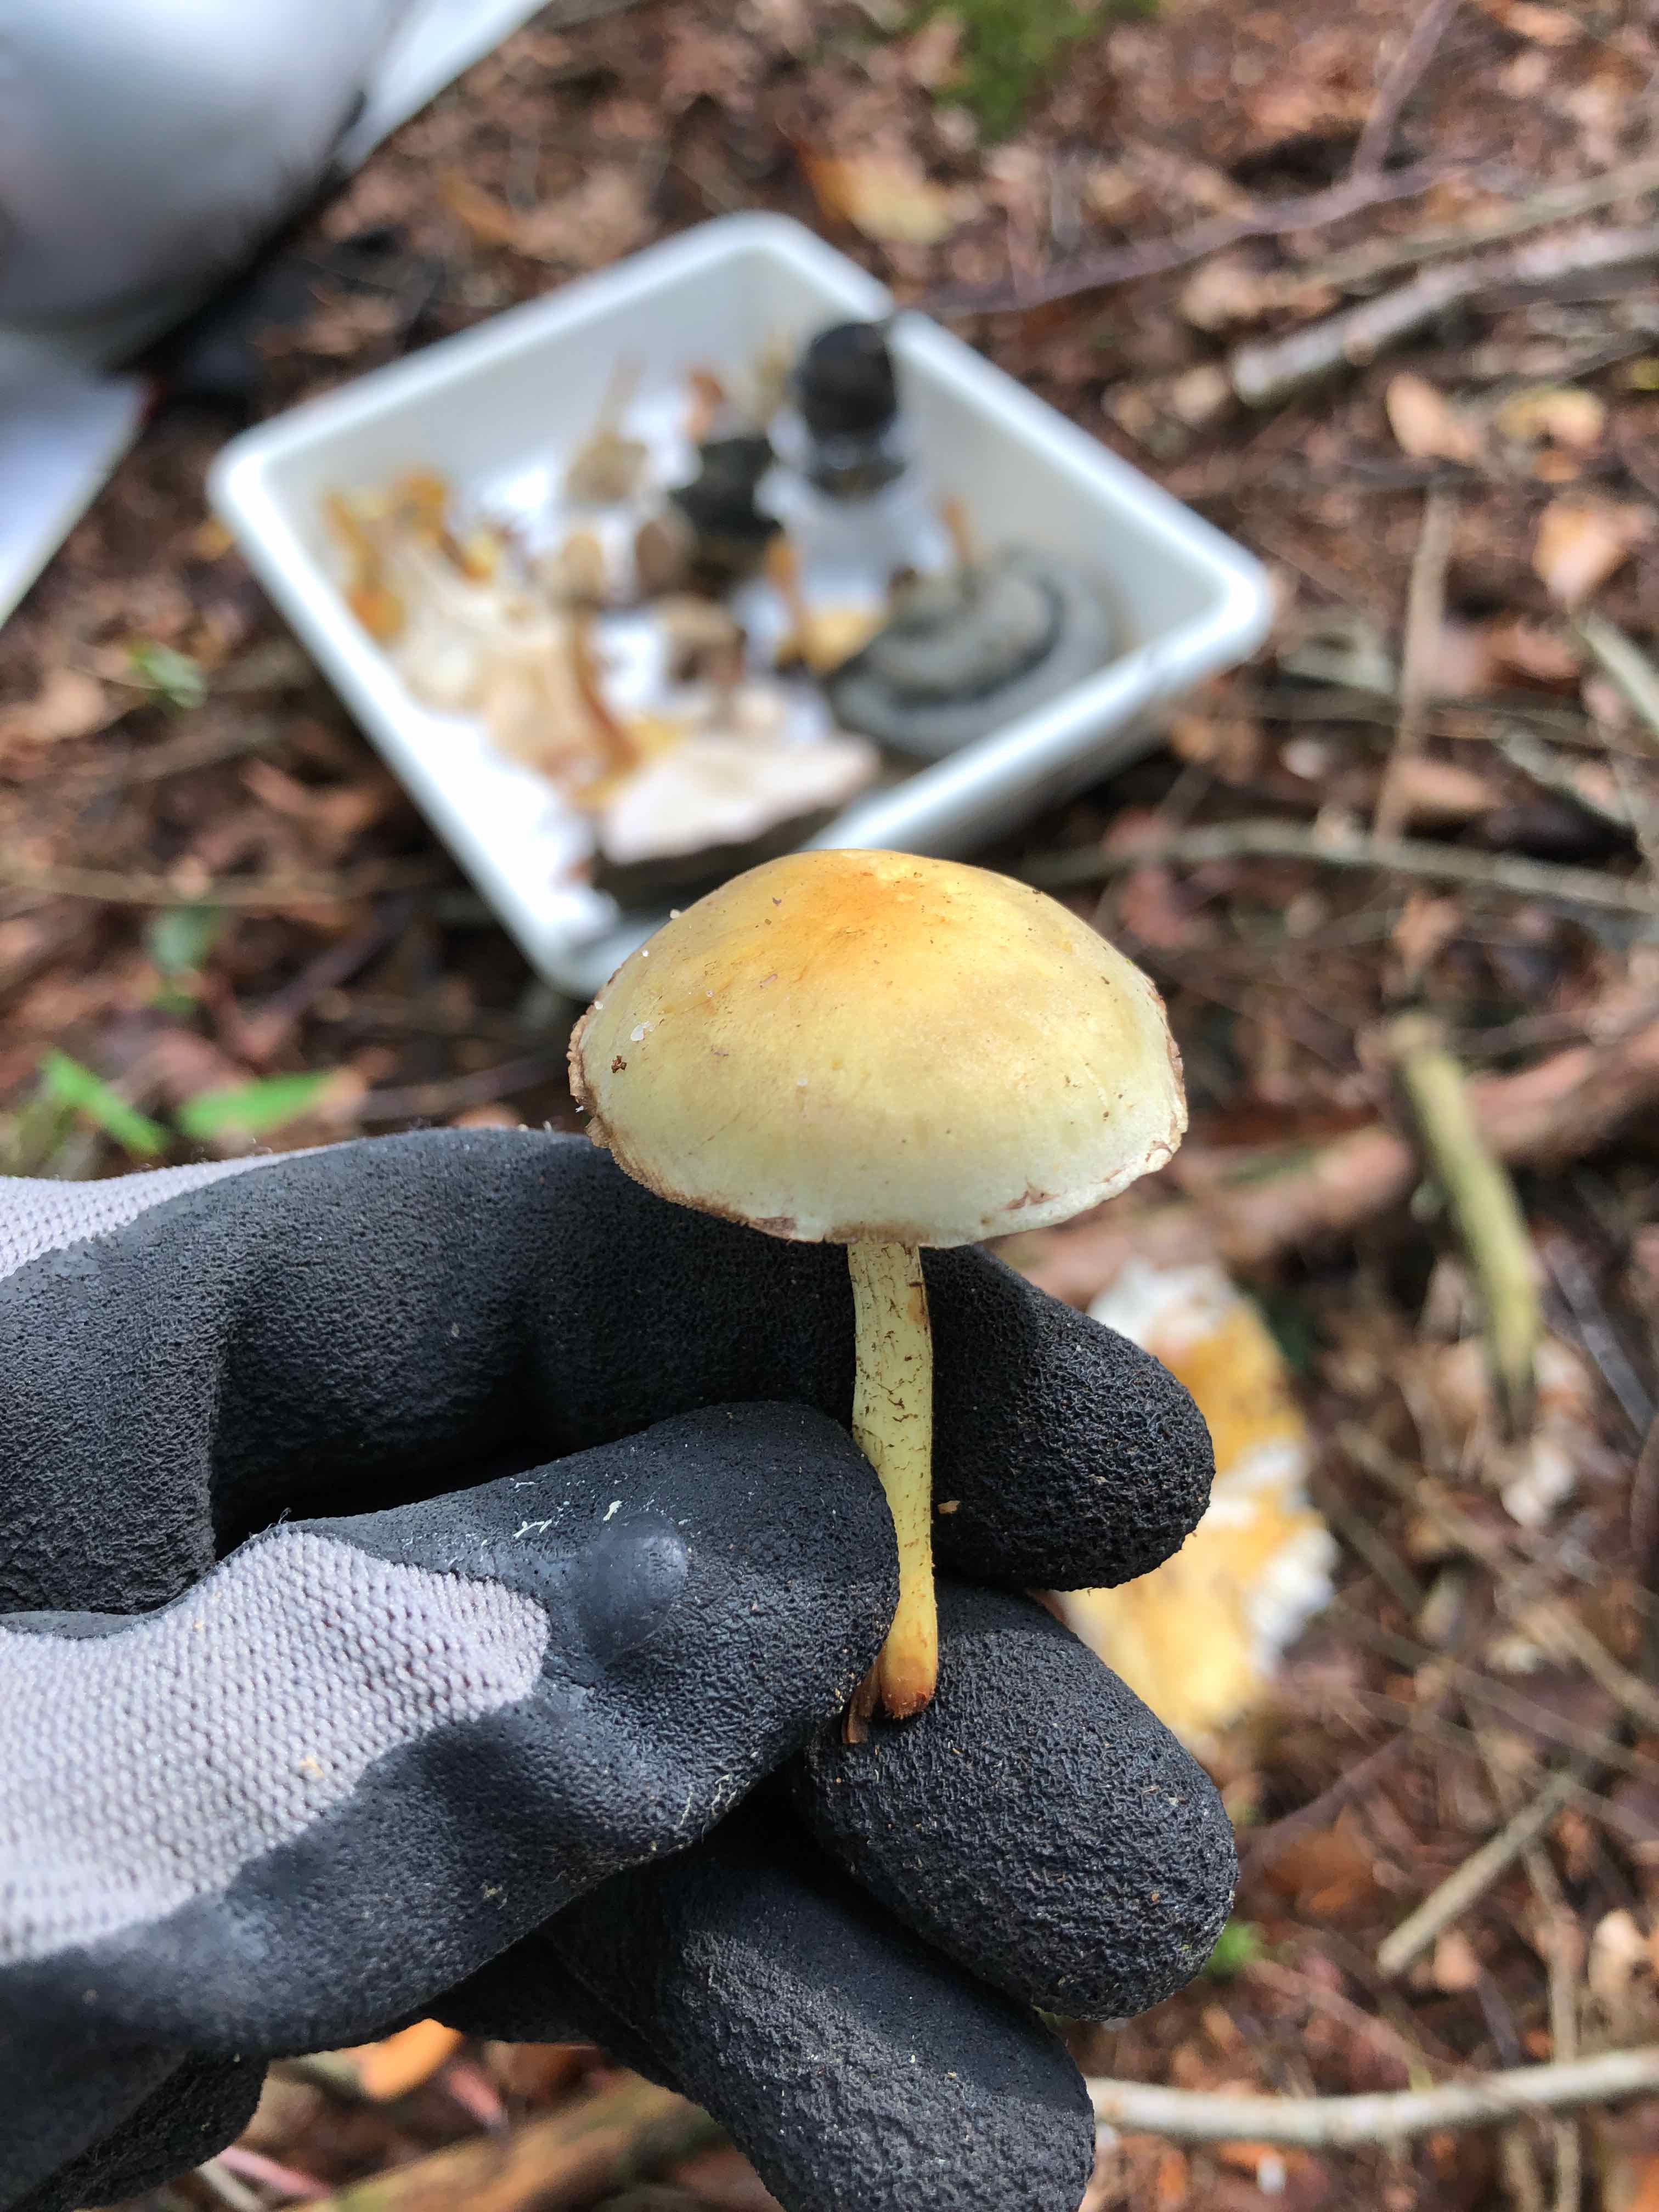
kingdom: Fungi
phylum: Basidiomycota
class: Agaricomycetes
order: Agaricales
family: Strophariaceae
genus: Hypholoma
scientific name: Hypholoma fasciculare
